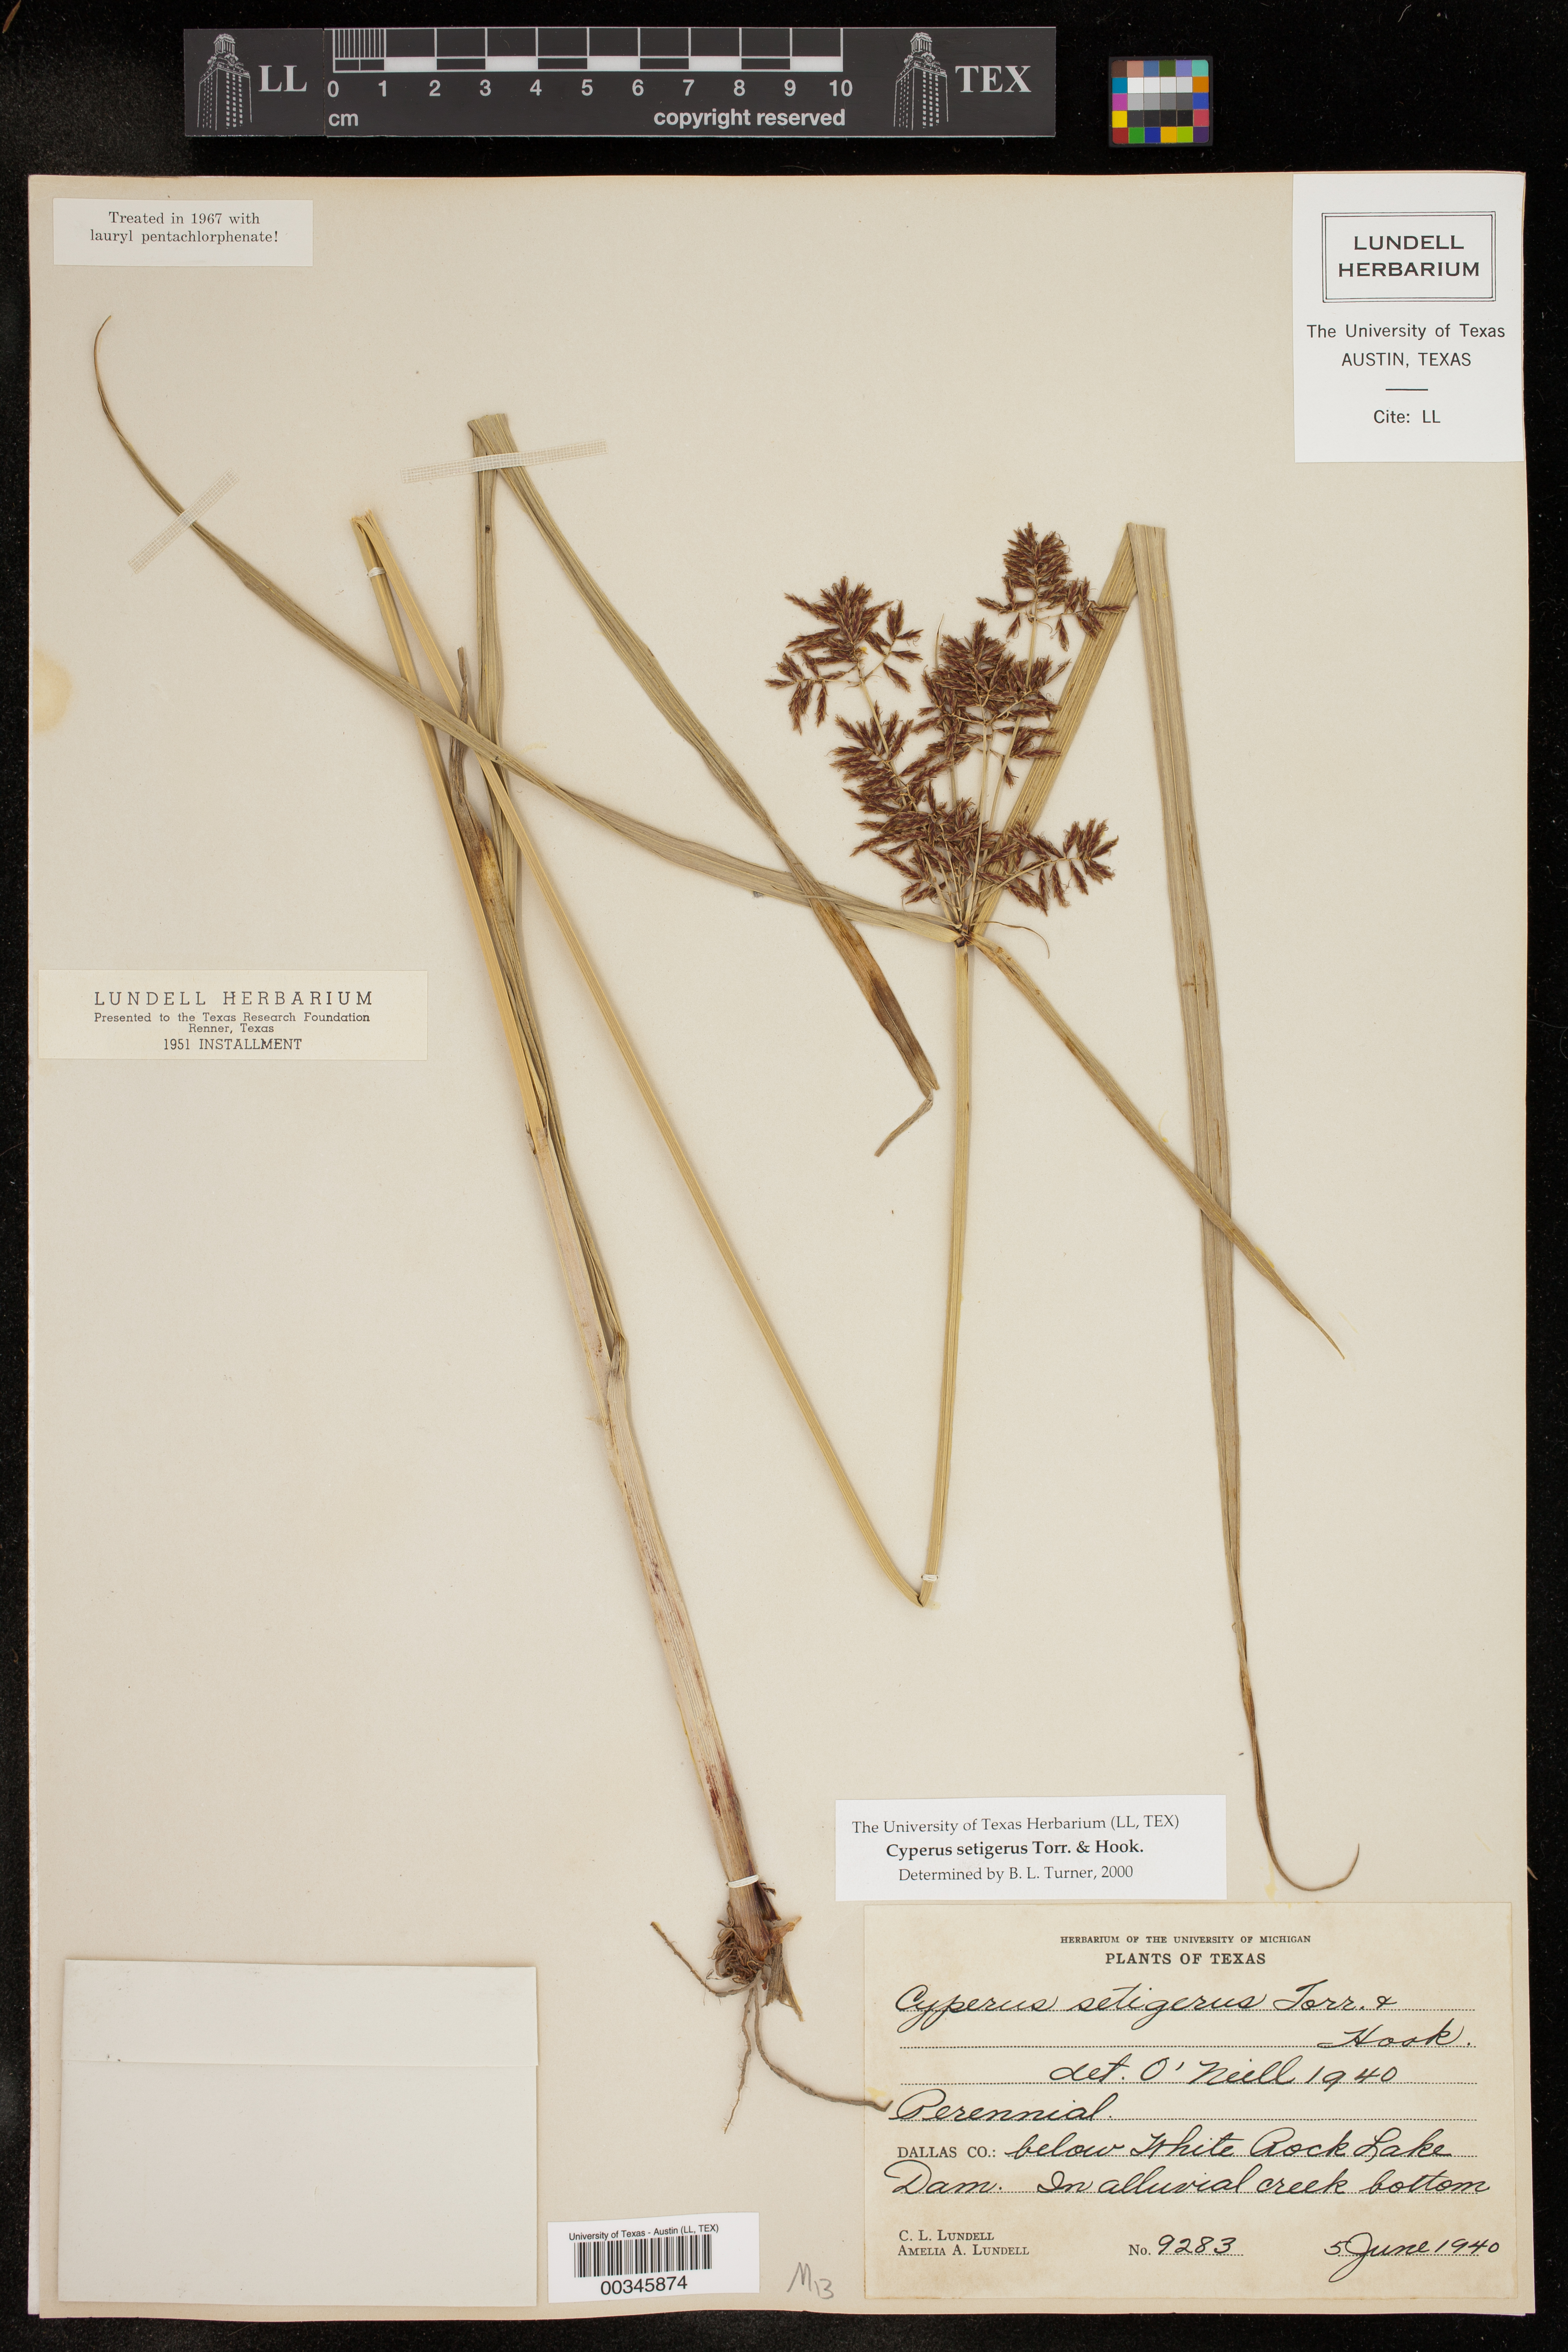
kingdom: Plantae
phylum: Tracheophyta
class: Liliopsida
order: Poales
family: Cyperaceae
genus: Cyperus
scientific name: Cyperus setigerus
